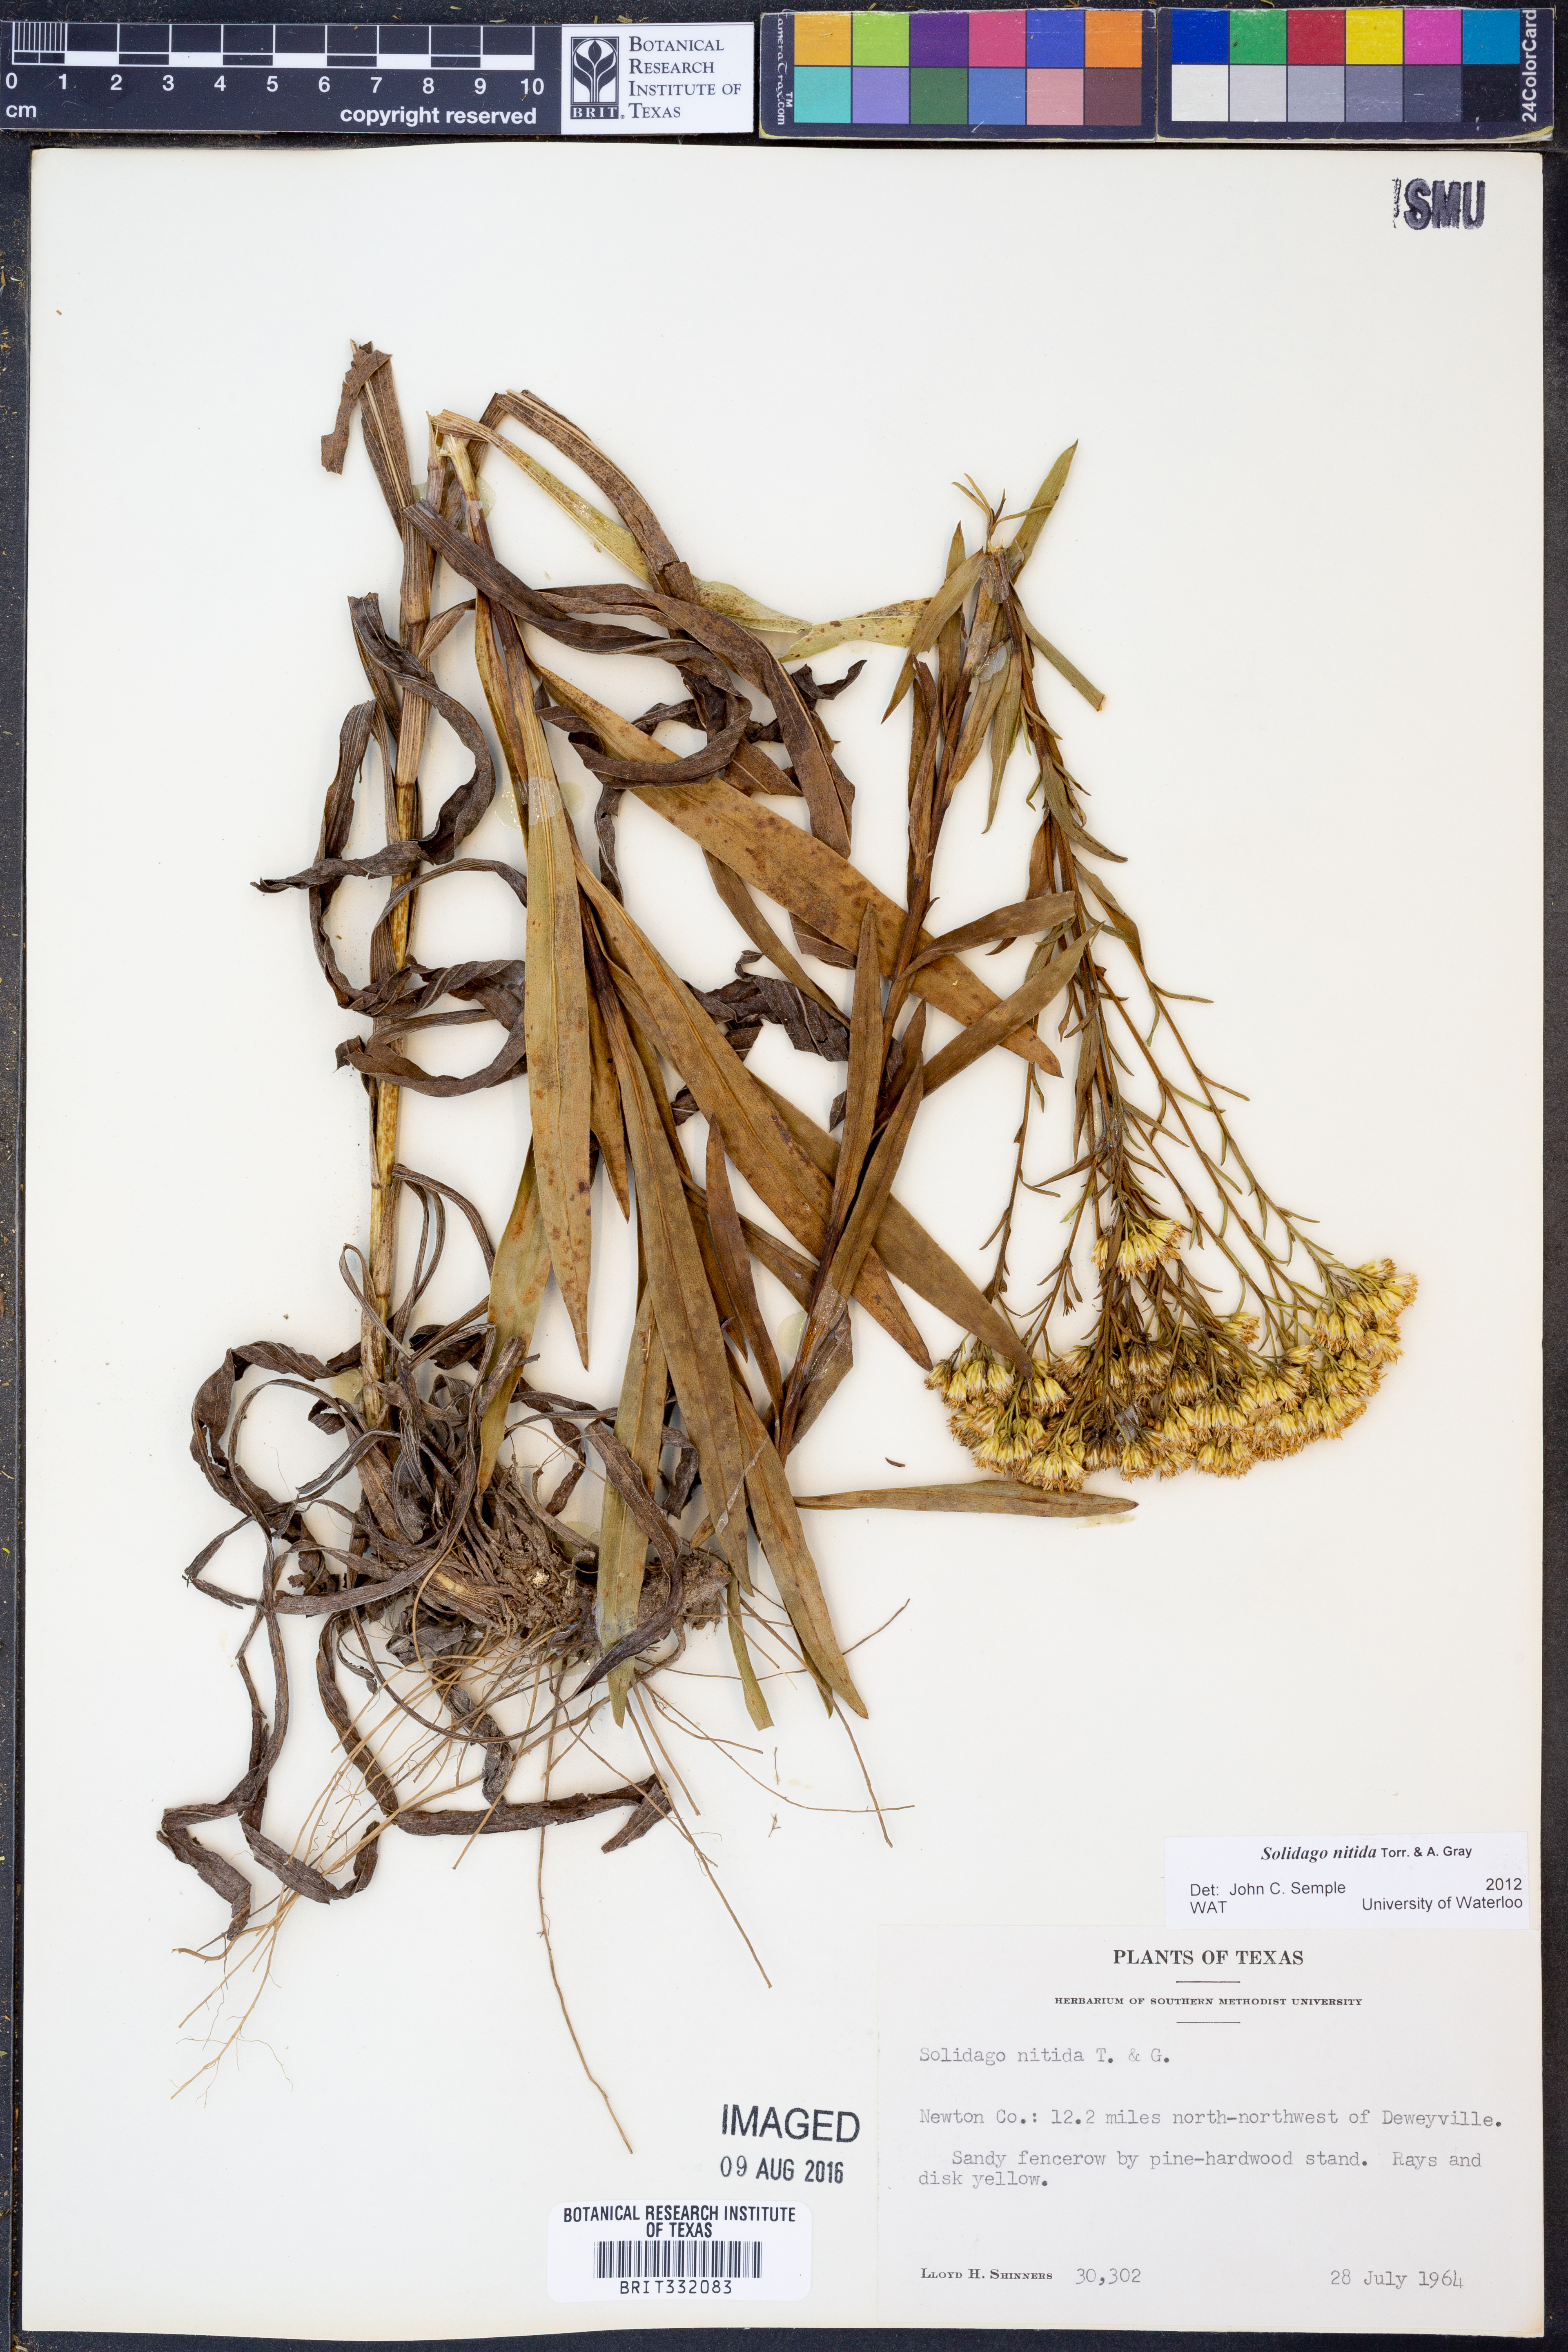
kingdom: Plantae
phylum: Tracheophyta
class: Magnoliopsida
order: Asterales
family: Asteraceae
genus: Solidago
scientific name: Solidago nitida
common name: Shiny goldenrod
